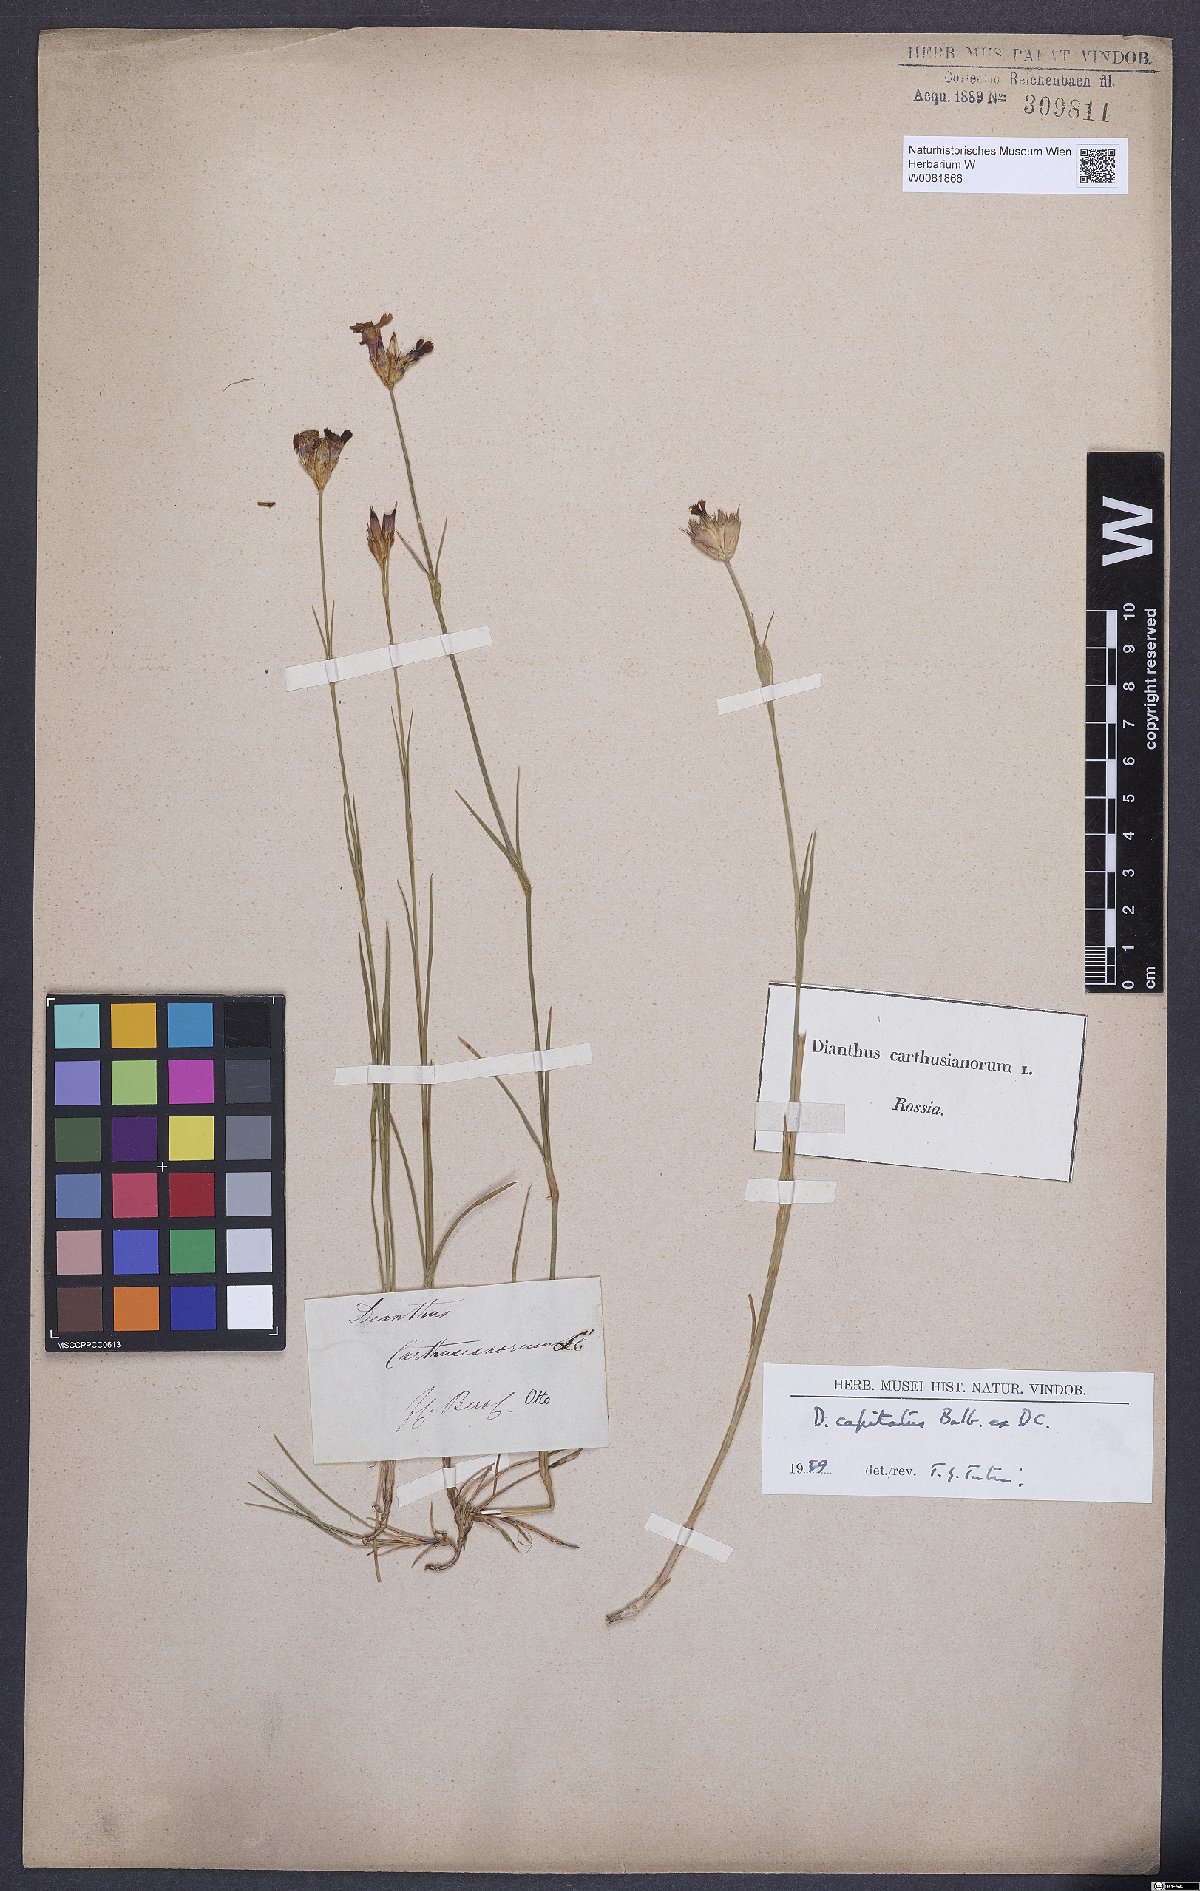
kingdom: Plantae
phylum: Tracheophyta
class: Magnoliopsida
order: Caryophyllales
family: Caryophyllaceae
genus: Dianthus
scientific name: Dianthus capitatus
